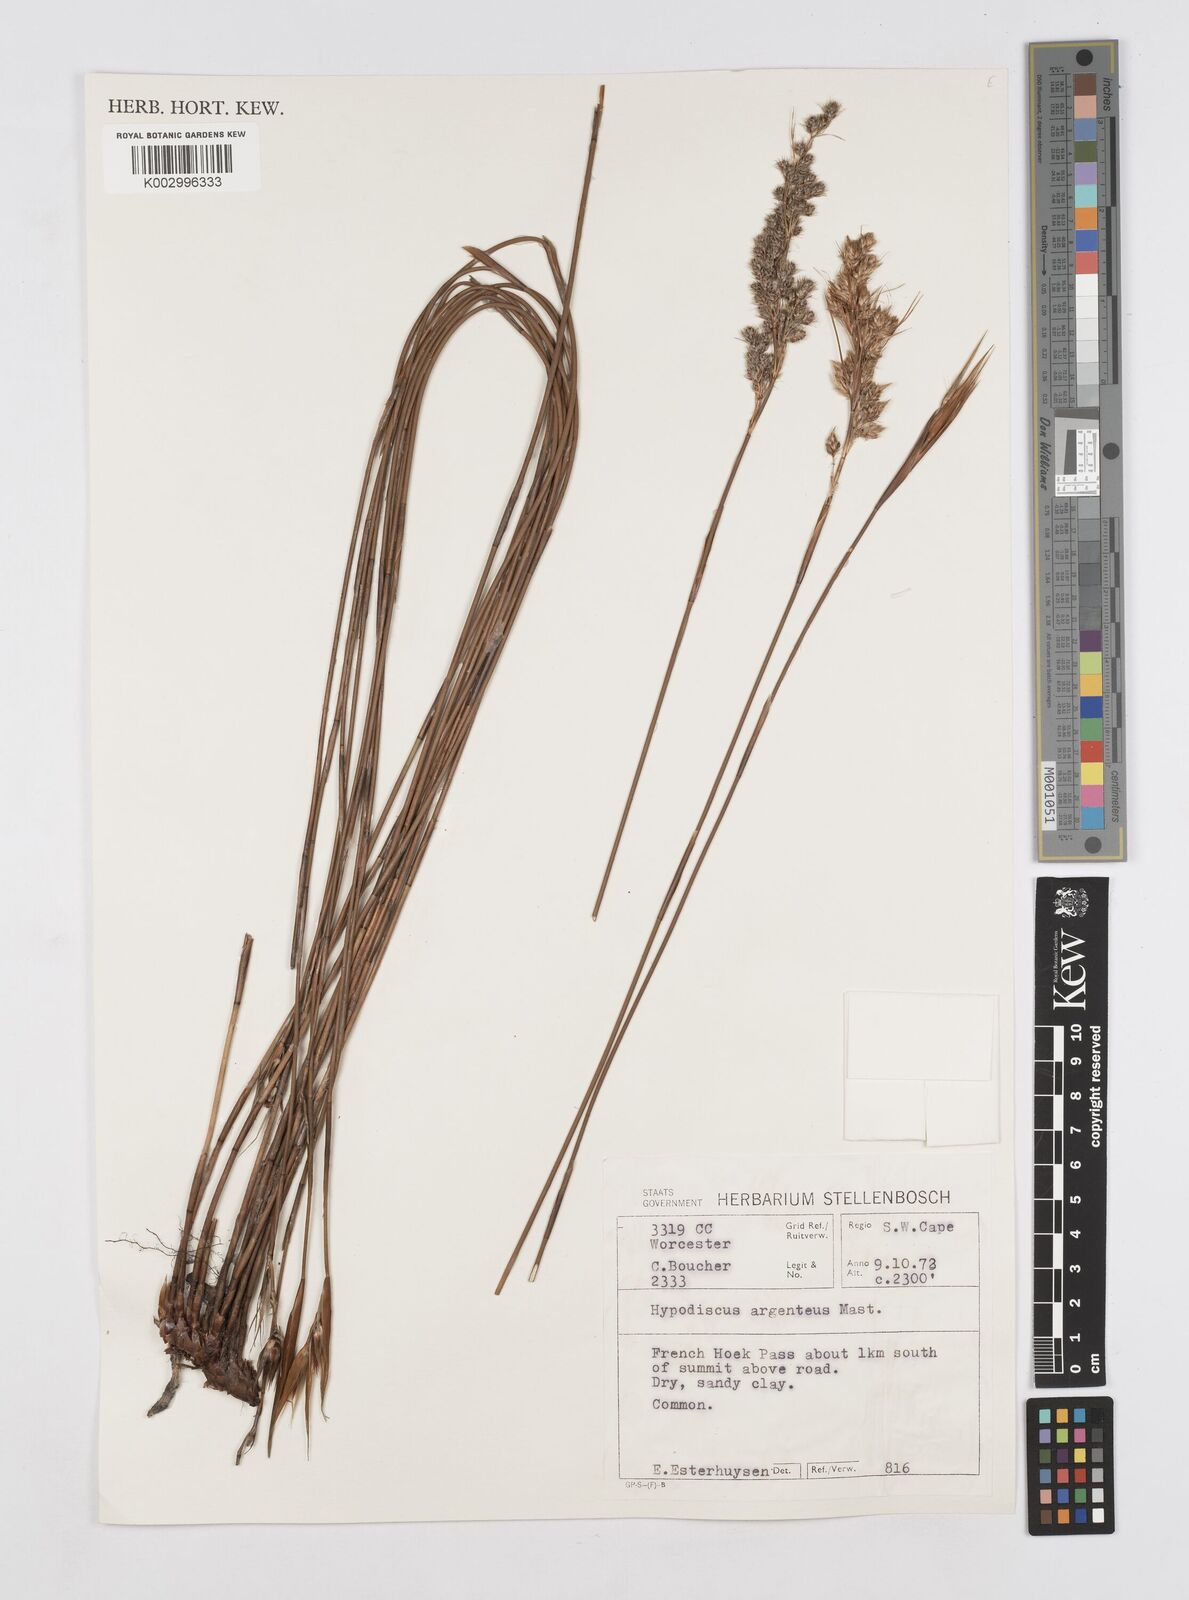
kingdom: Plantae
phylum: Tracheophyta
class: Liliopsida
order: Poales
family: Restionaceae
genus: Hypodiscus
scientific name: Hypodiscus argenteus
